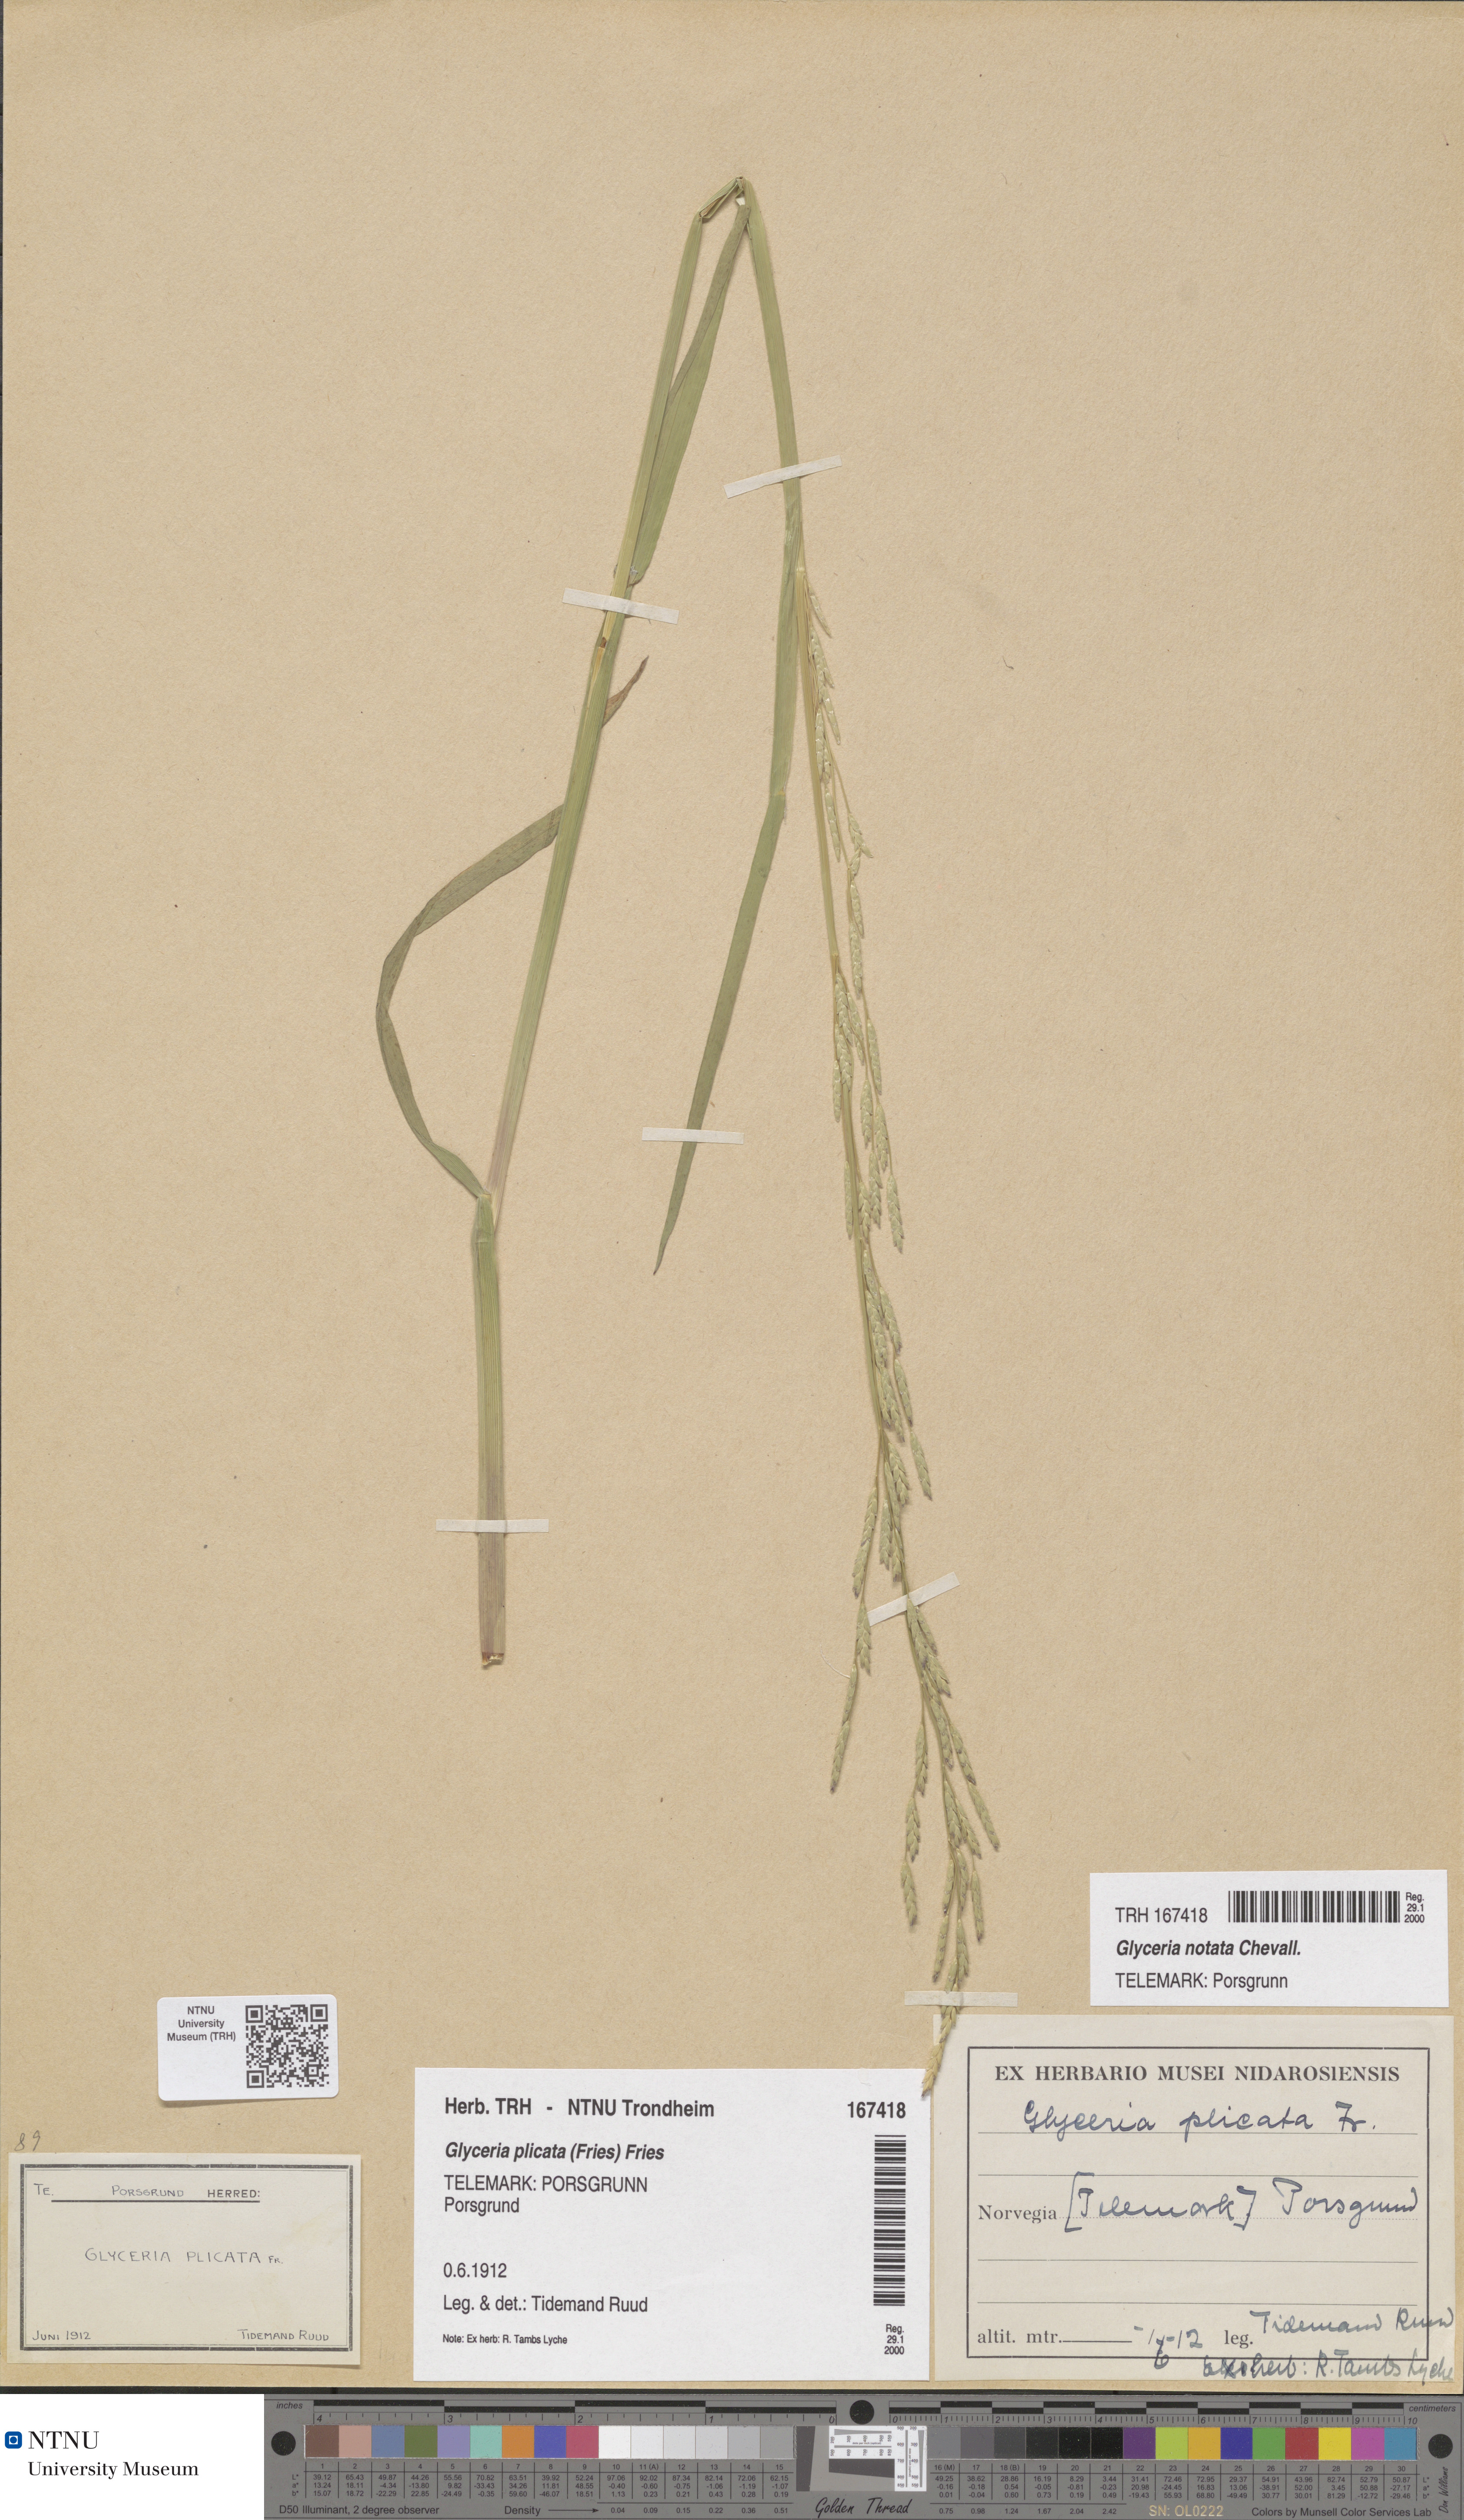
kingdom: Plantae
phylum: Tracheophyta
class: Liliopsida
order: Poales
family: Poaceae
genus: Glyceria
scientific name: Glyceria notata
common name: Plicate sweet-grass
